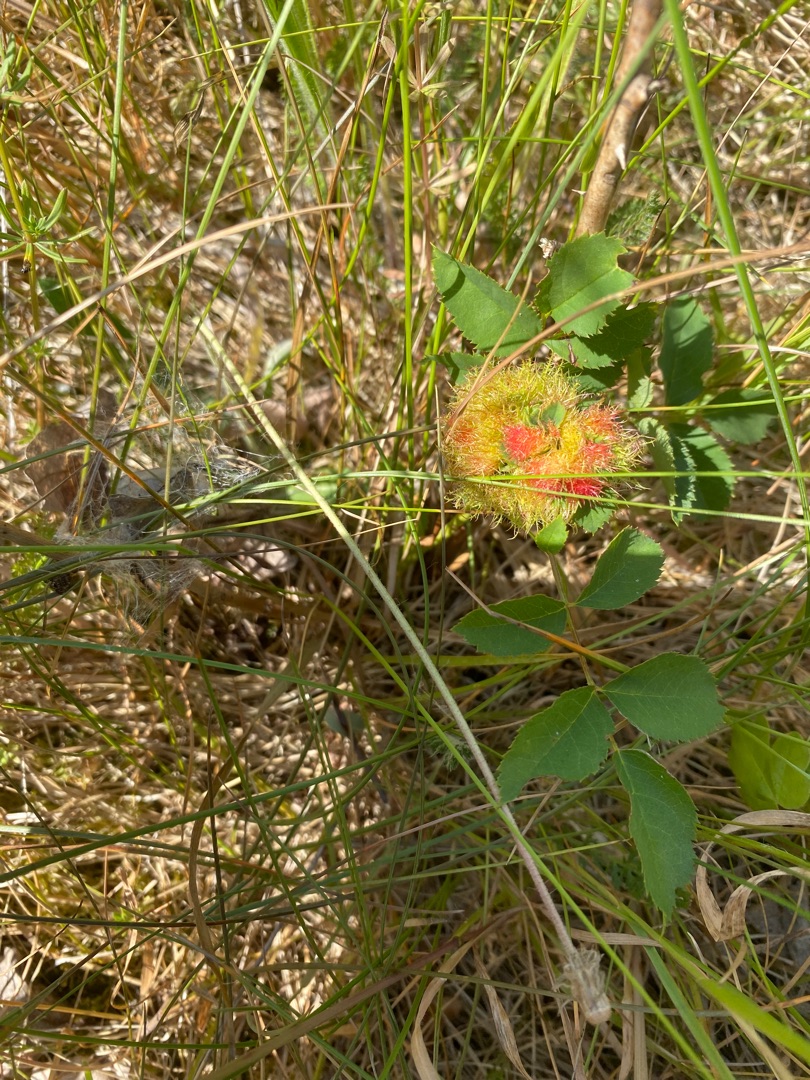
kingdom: Animalia
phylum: Arthropoda
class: Insecta
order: Hymenoptera
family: Cynipidae
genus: Diplolepis
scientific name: Diplolepis rosae
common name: Bedeguargalhveps
